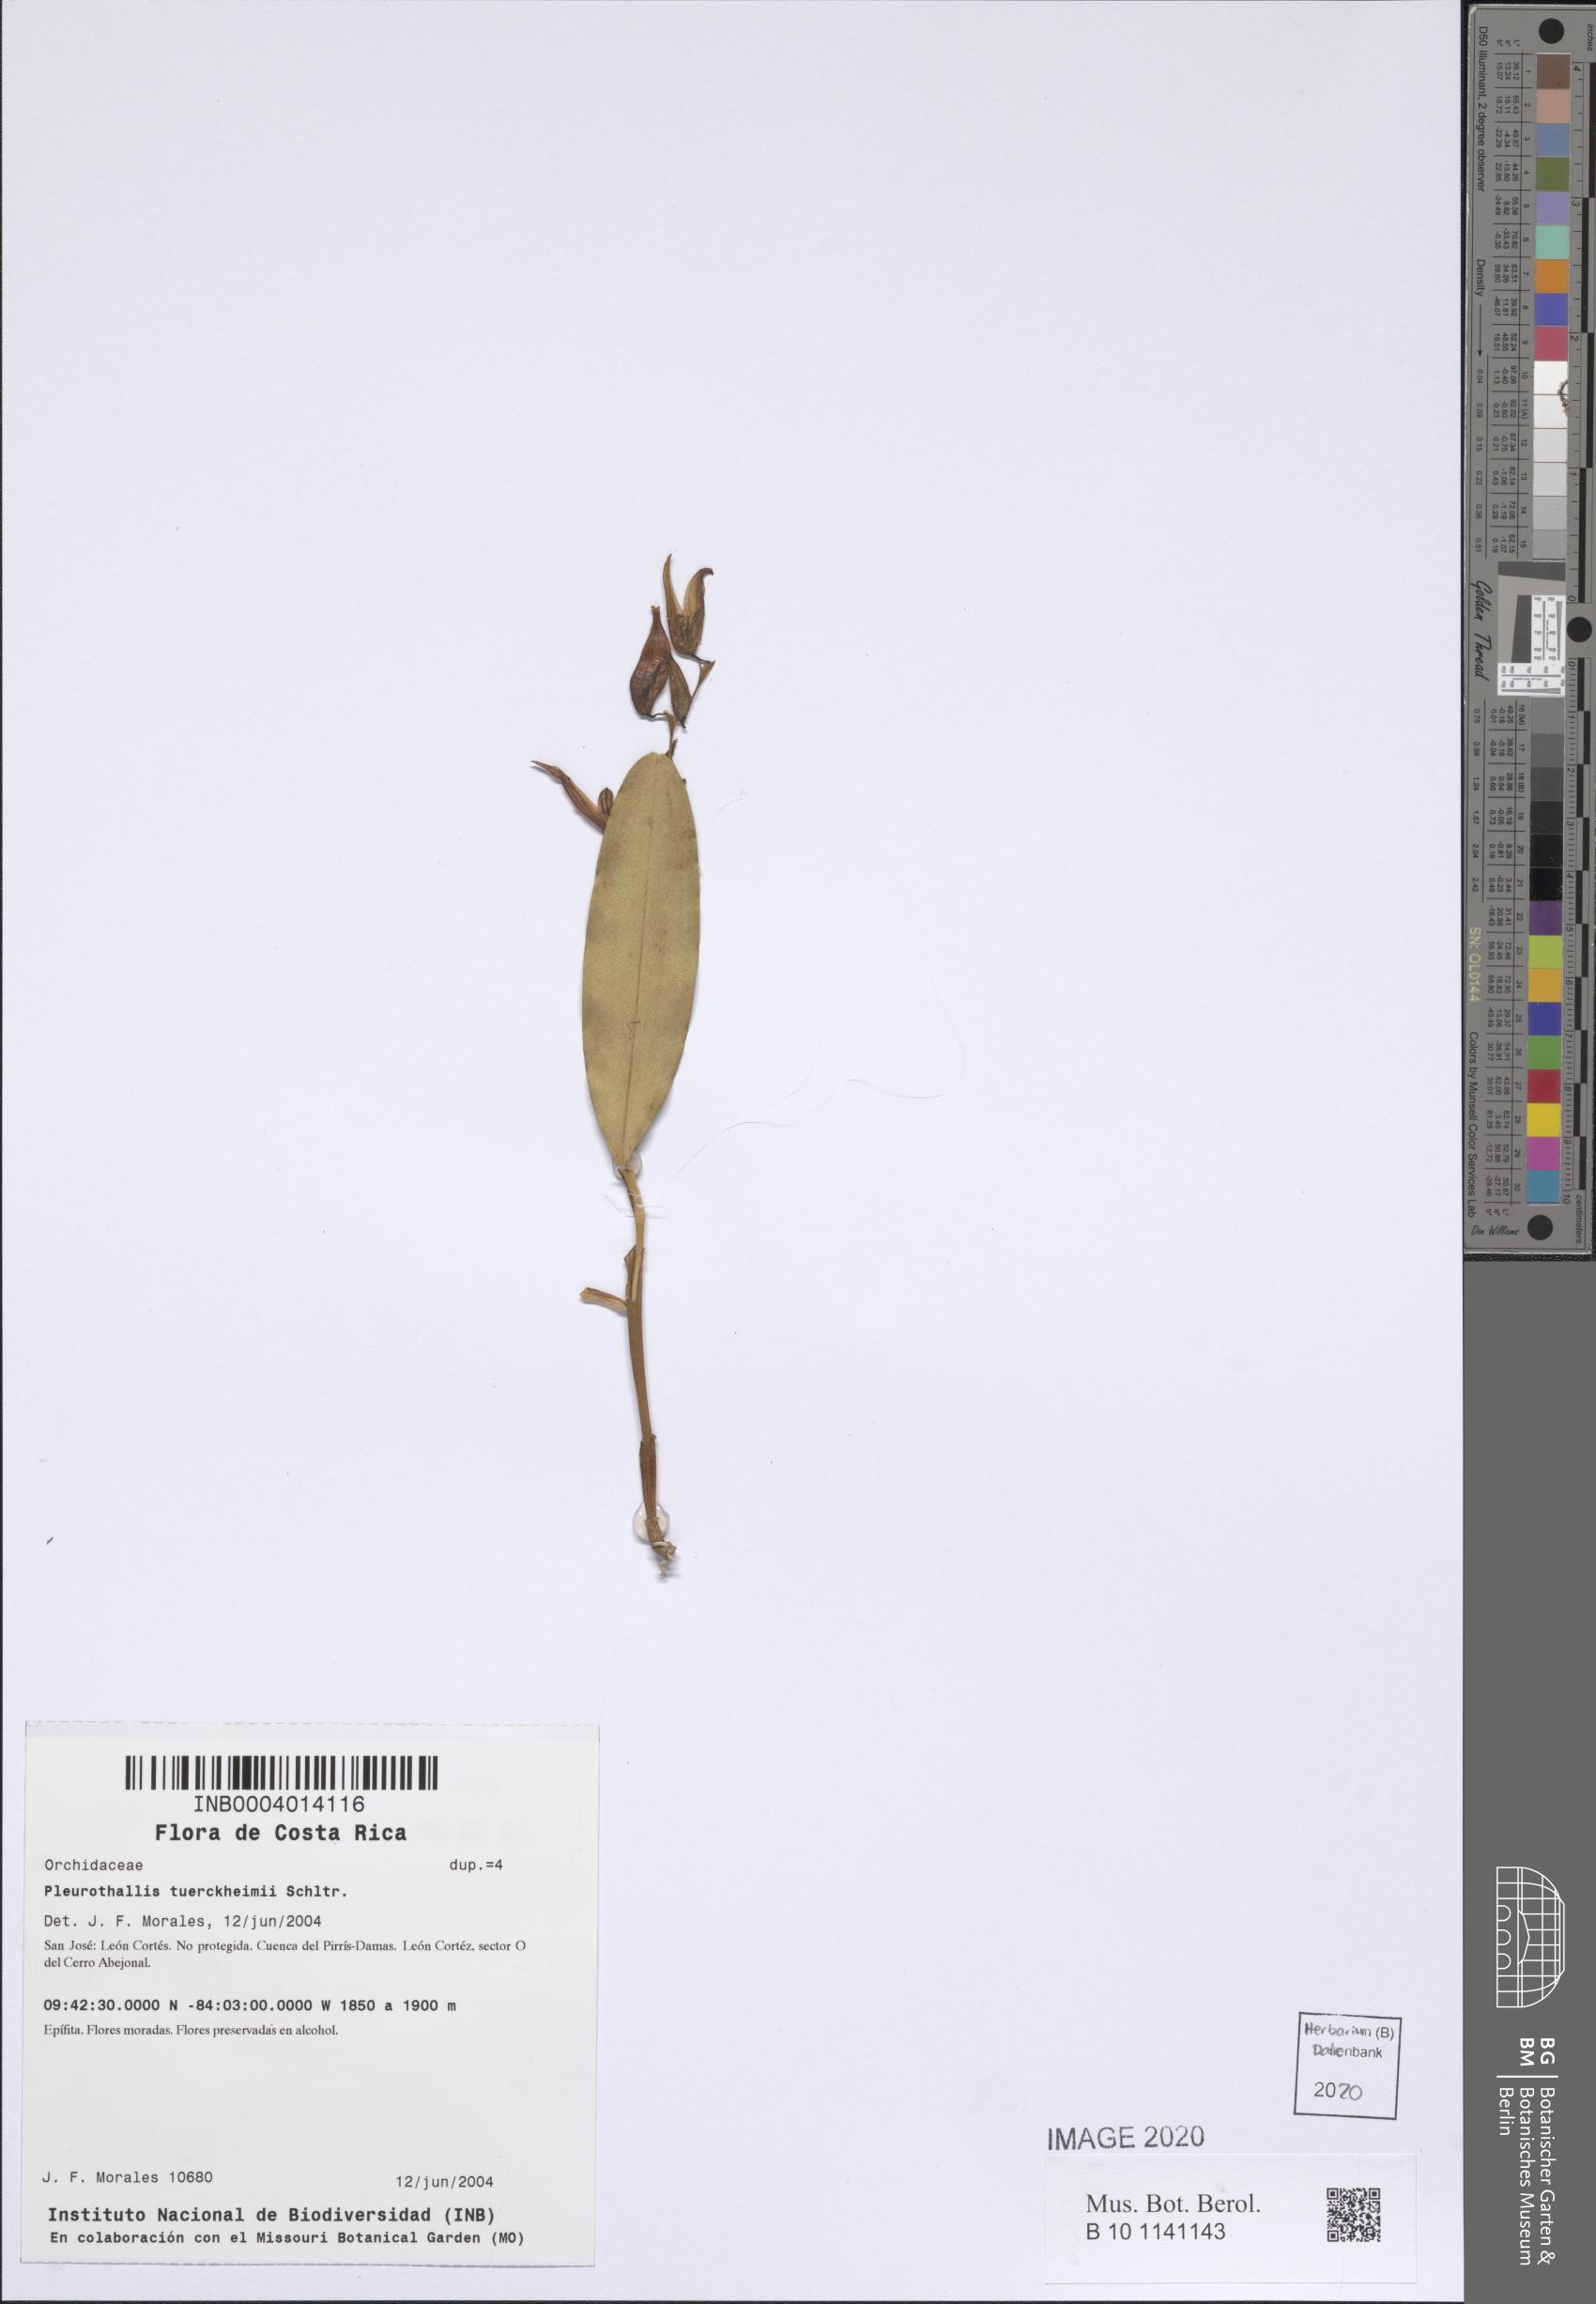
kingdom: Plantae
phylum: Tracheophyta
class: Liliopsida
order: Asparagales
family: Orchidaceae
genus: Stelis
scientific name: Stelis megachlamys
